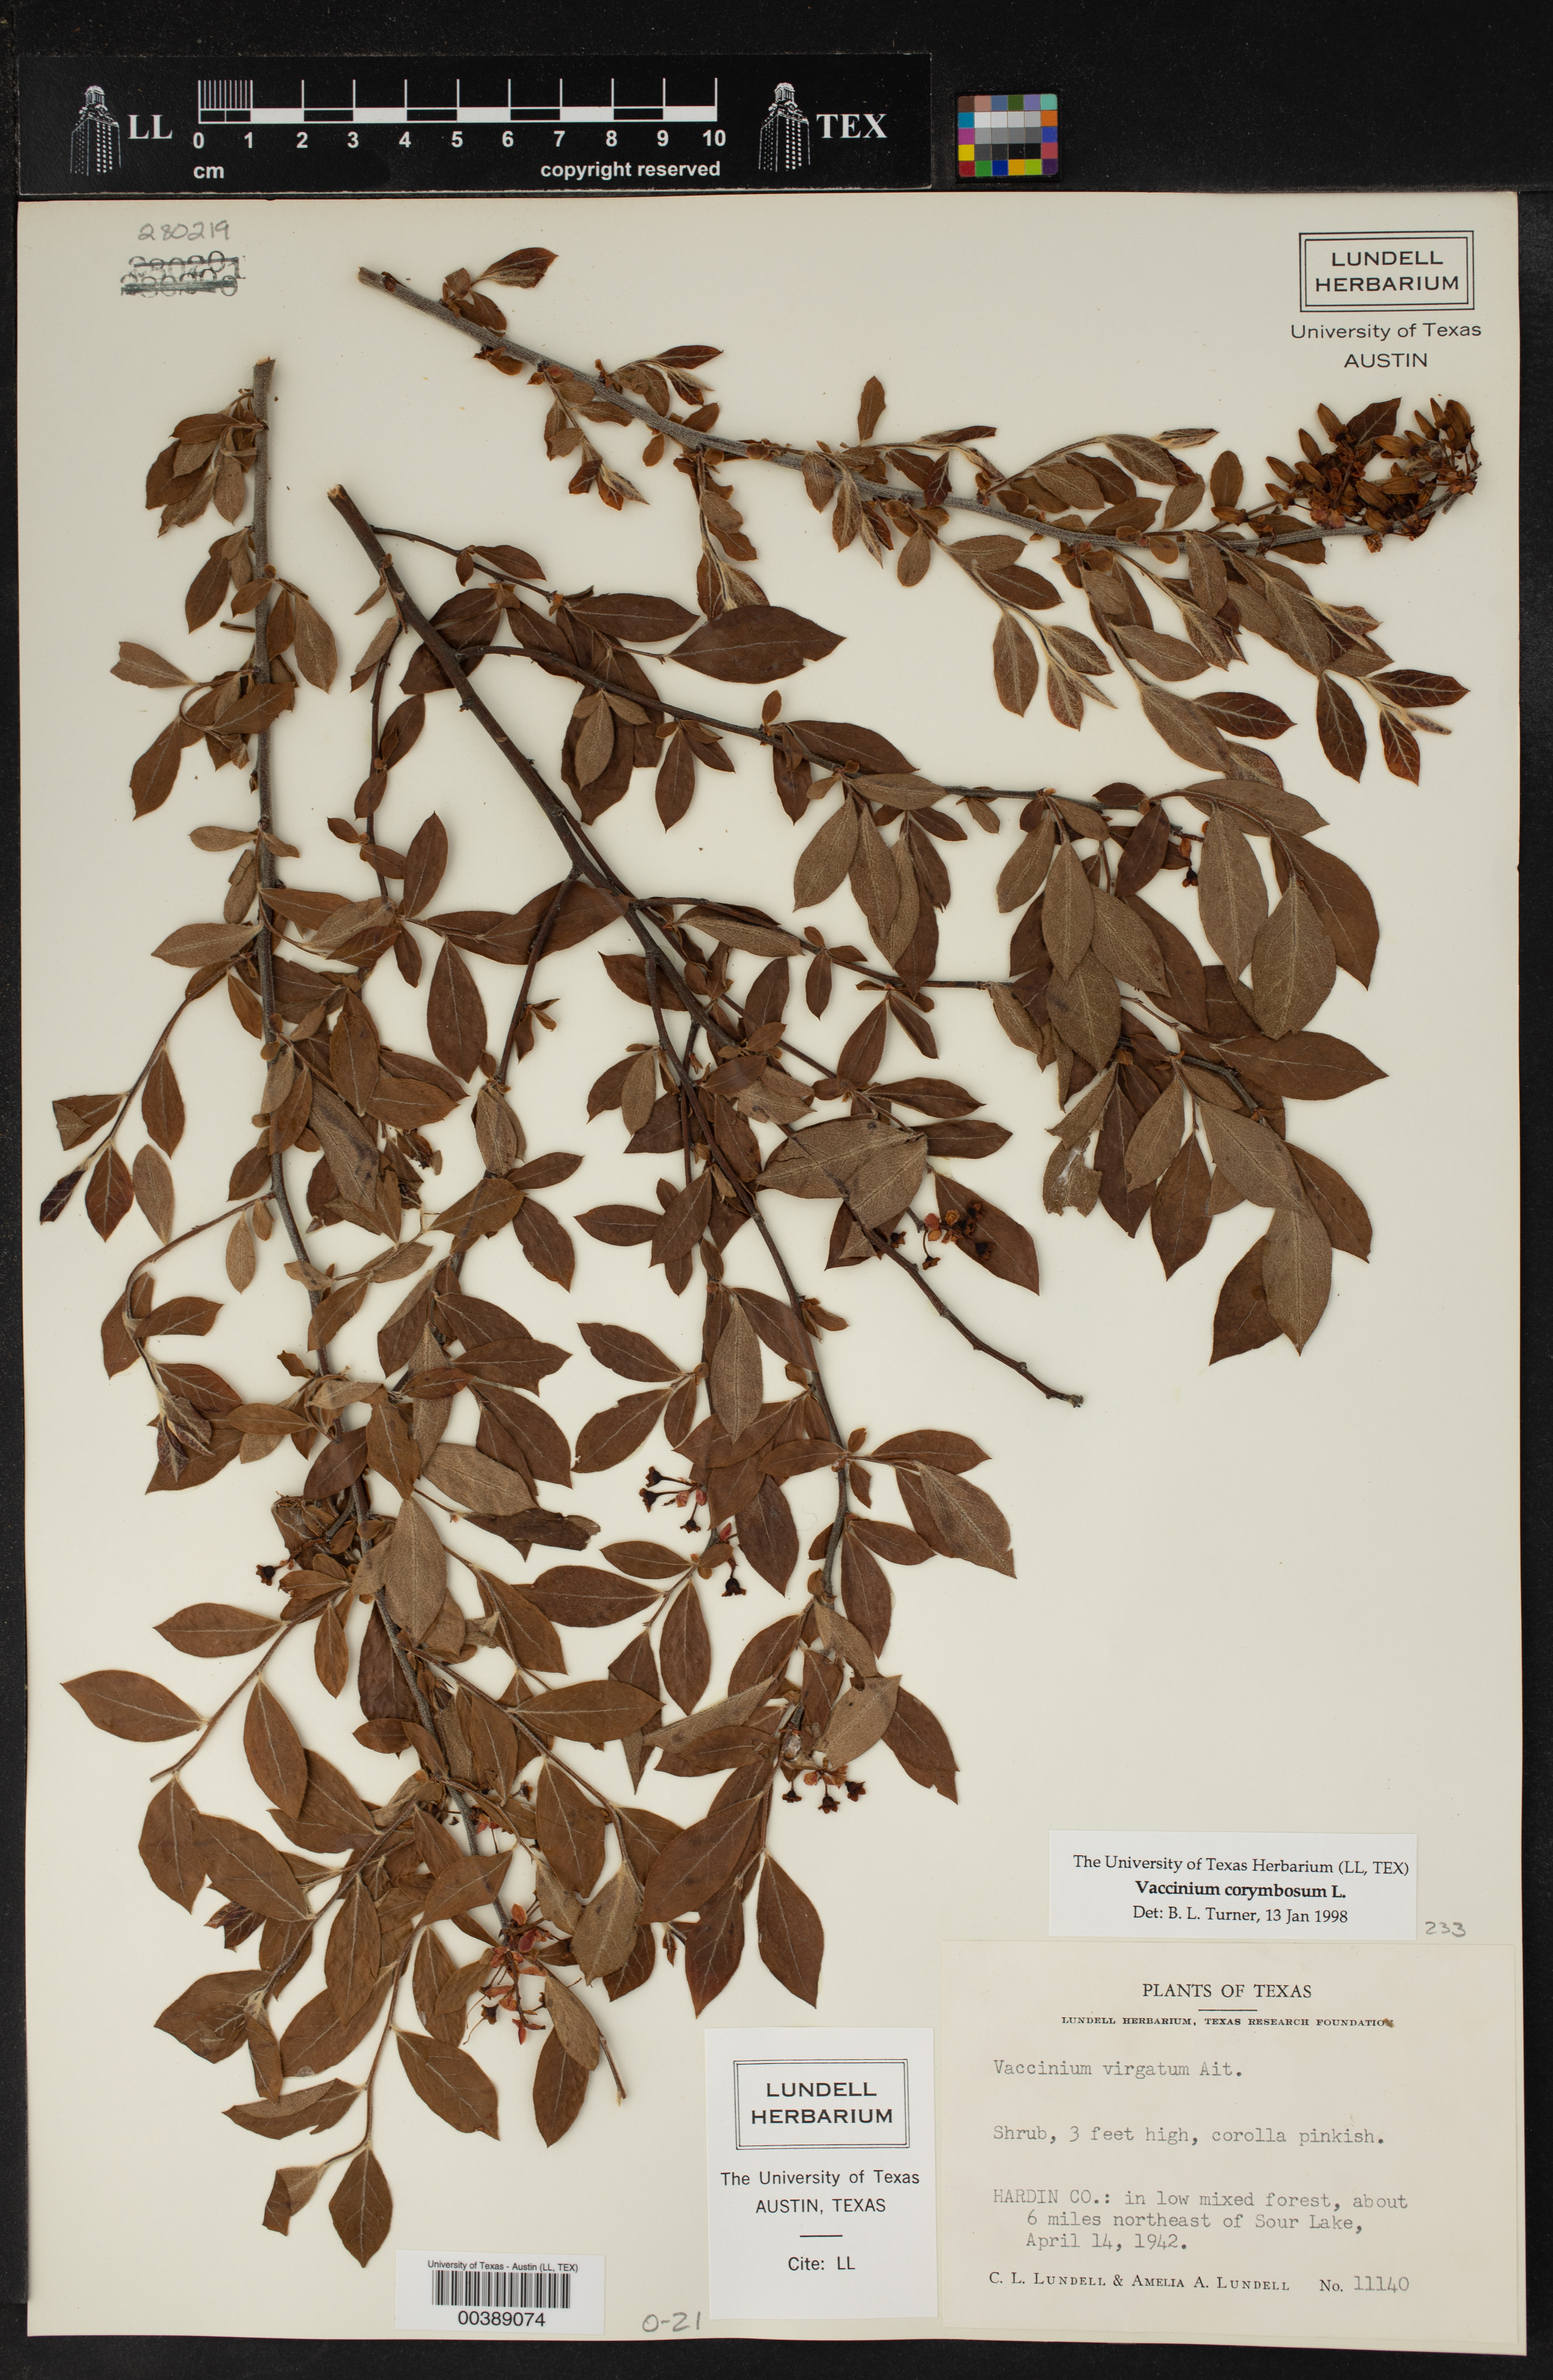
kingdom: Plantae
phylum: Tracheophyta
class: Magnoliopsida
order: Ericales
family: Ericaceae
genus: Vaccinium
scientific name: Vaccinium corymbosum
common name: Blueberry
